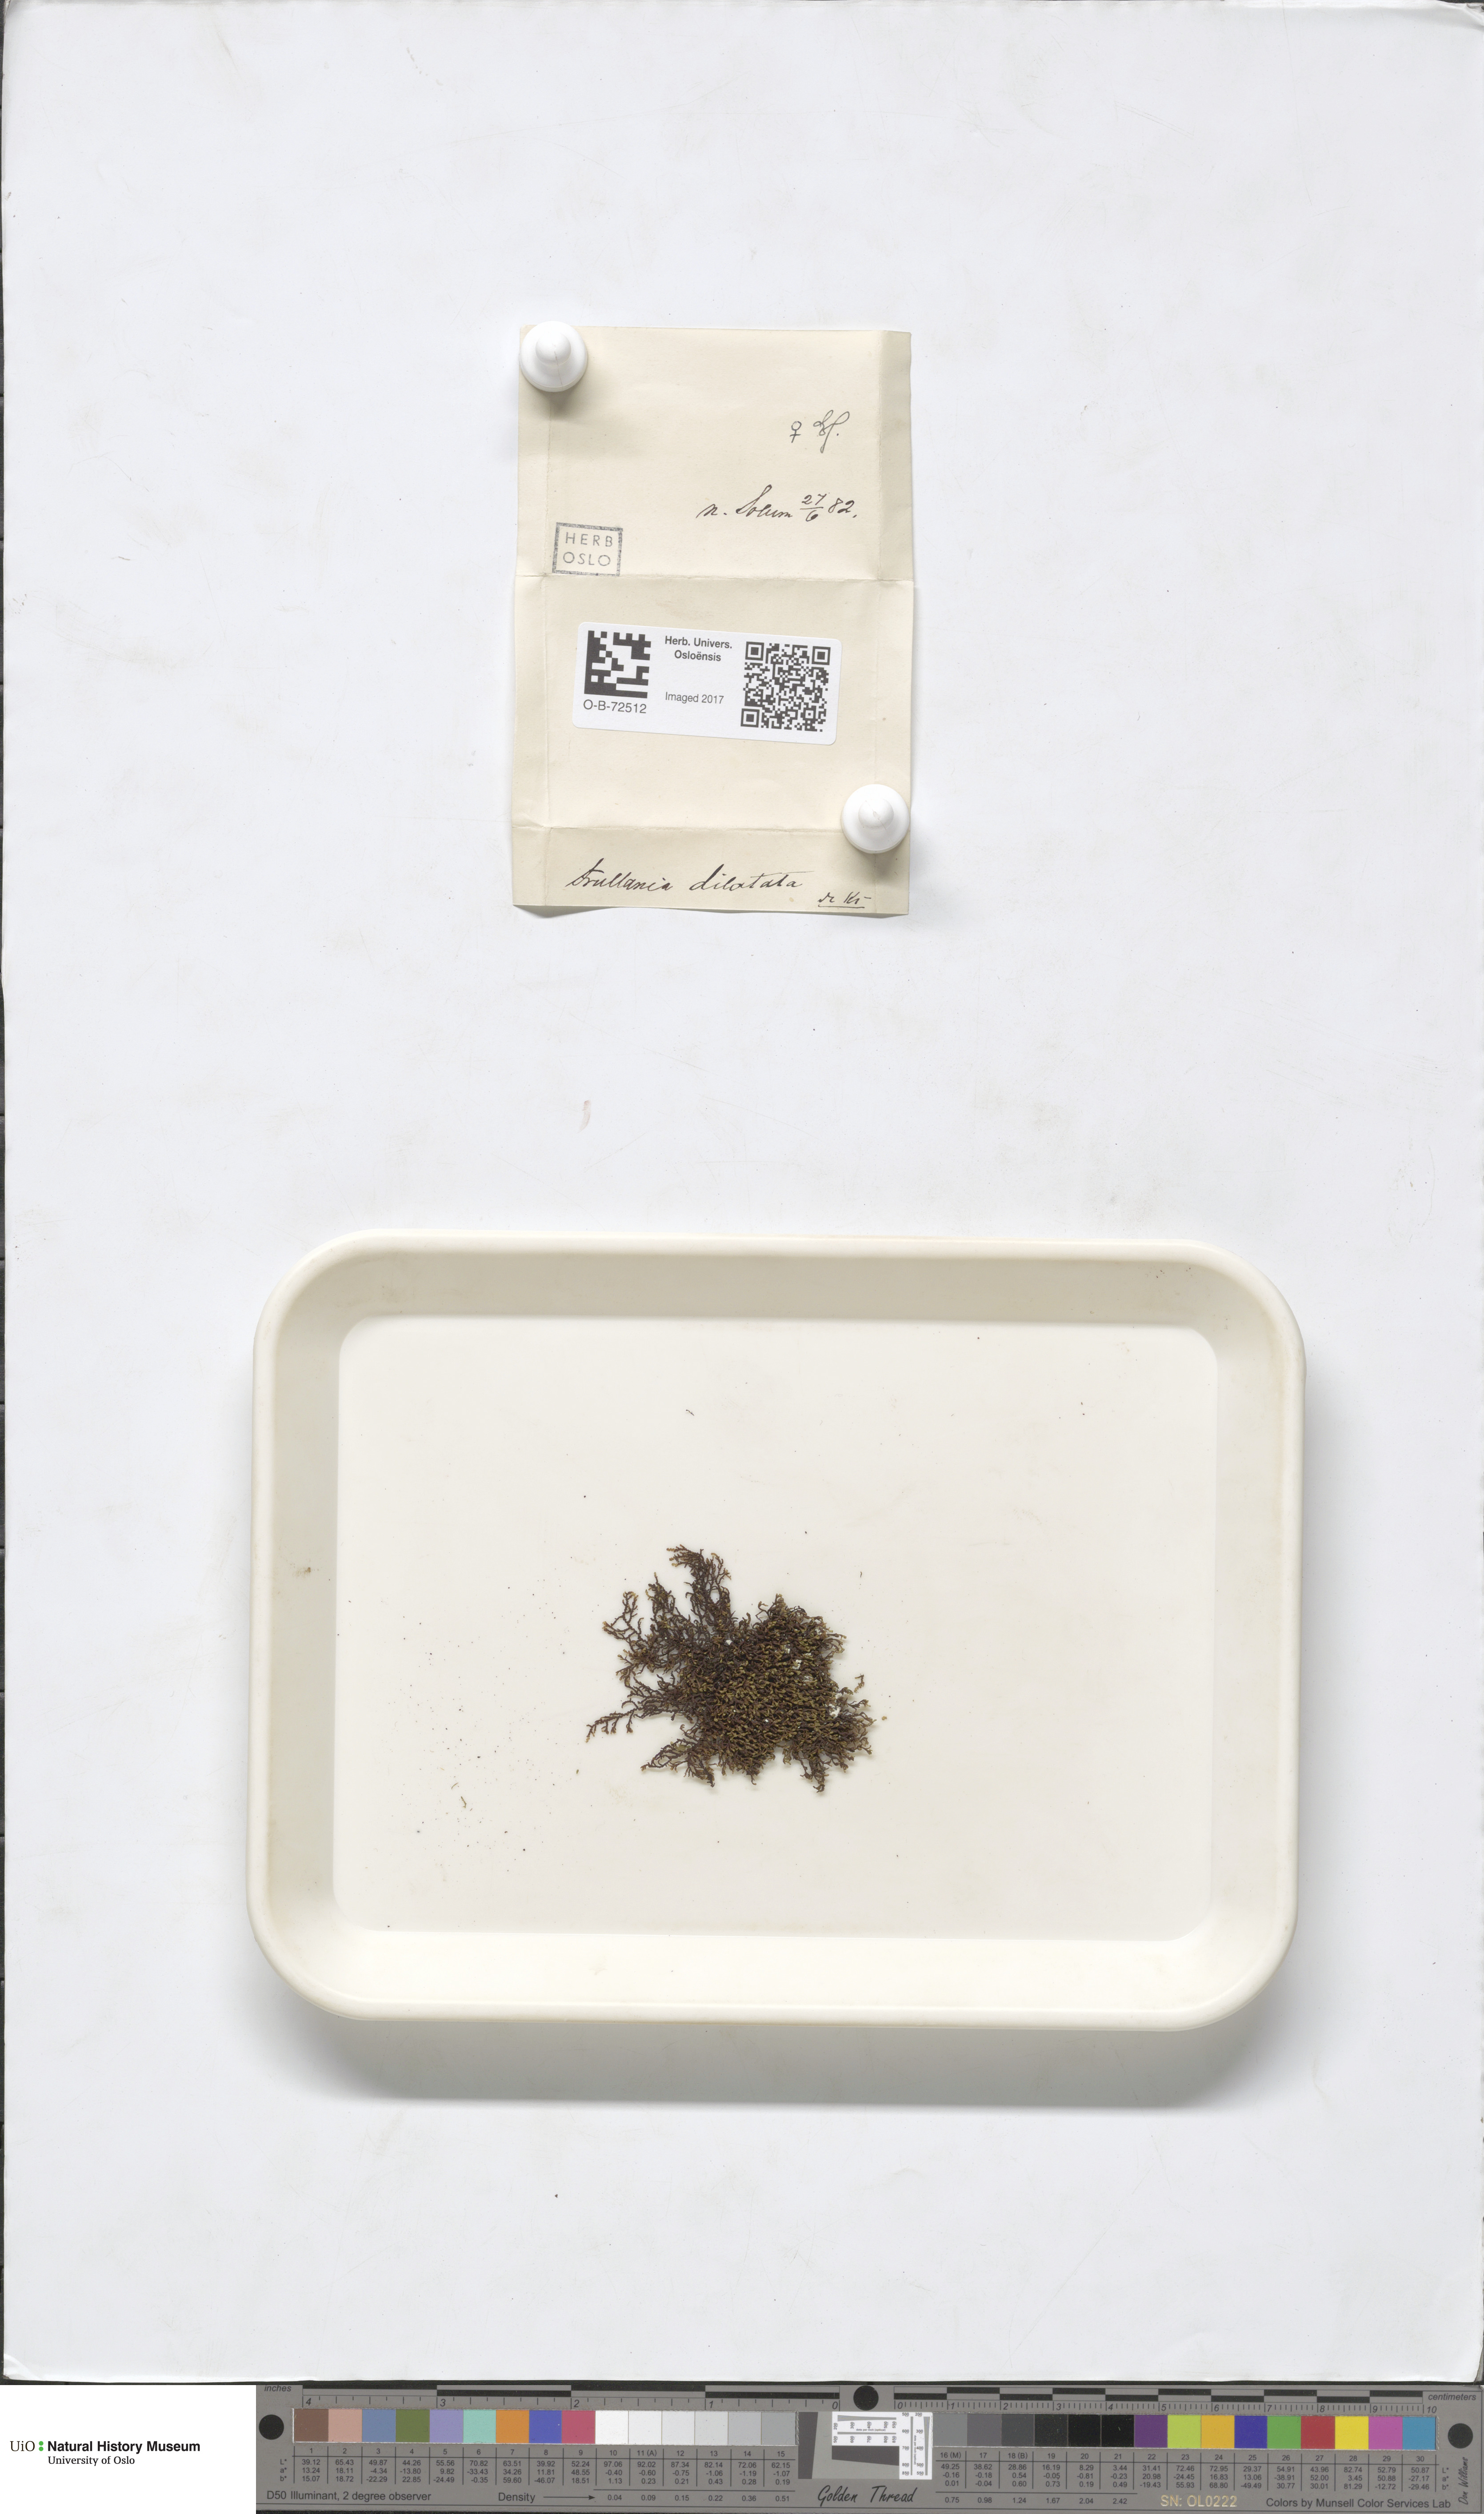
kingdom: Plantae
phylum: Marchantiophyta
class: Jungermanniopsida
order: Porellales
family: Frullaniaceae
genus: Frullania
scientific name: Frullania dilatata
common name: Dilated scalewort
